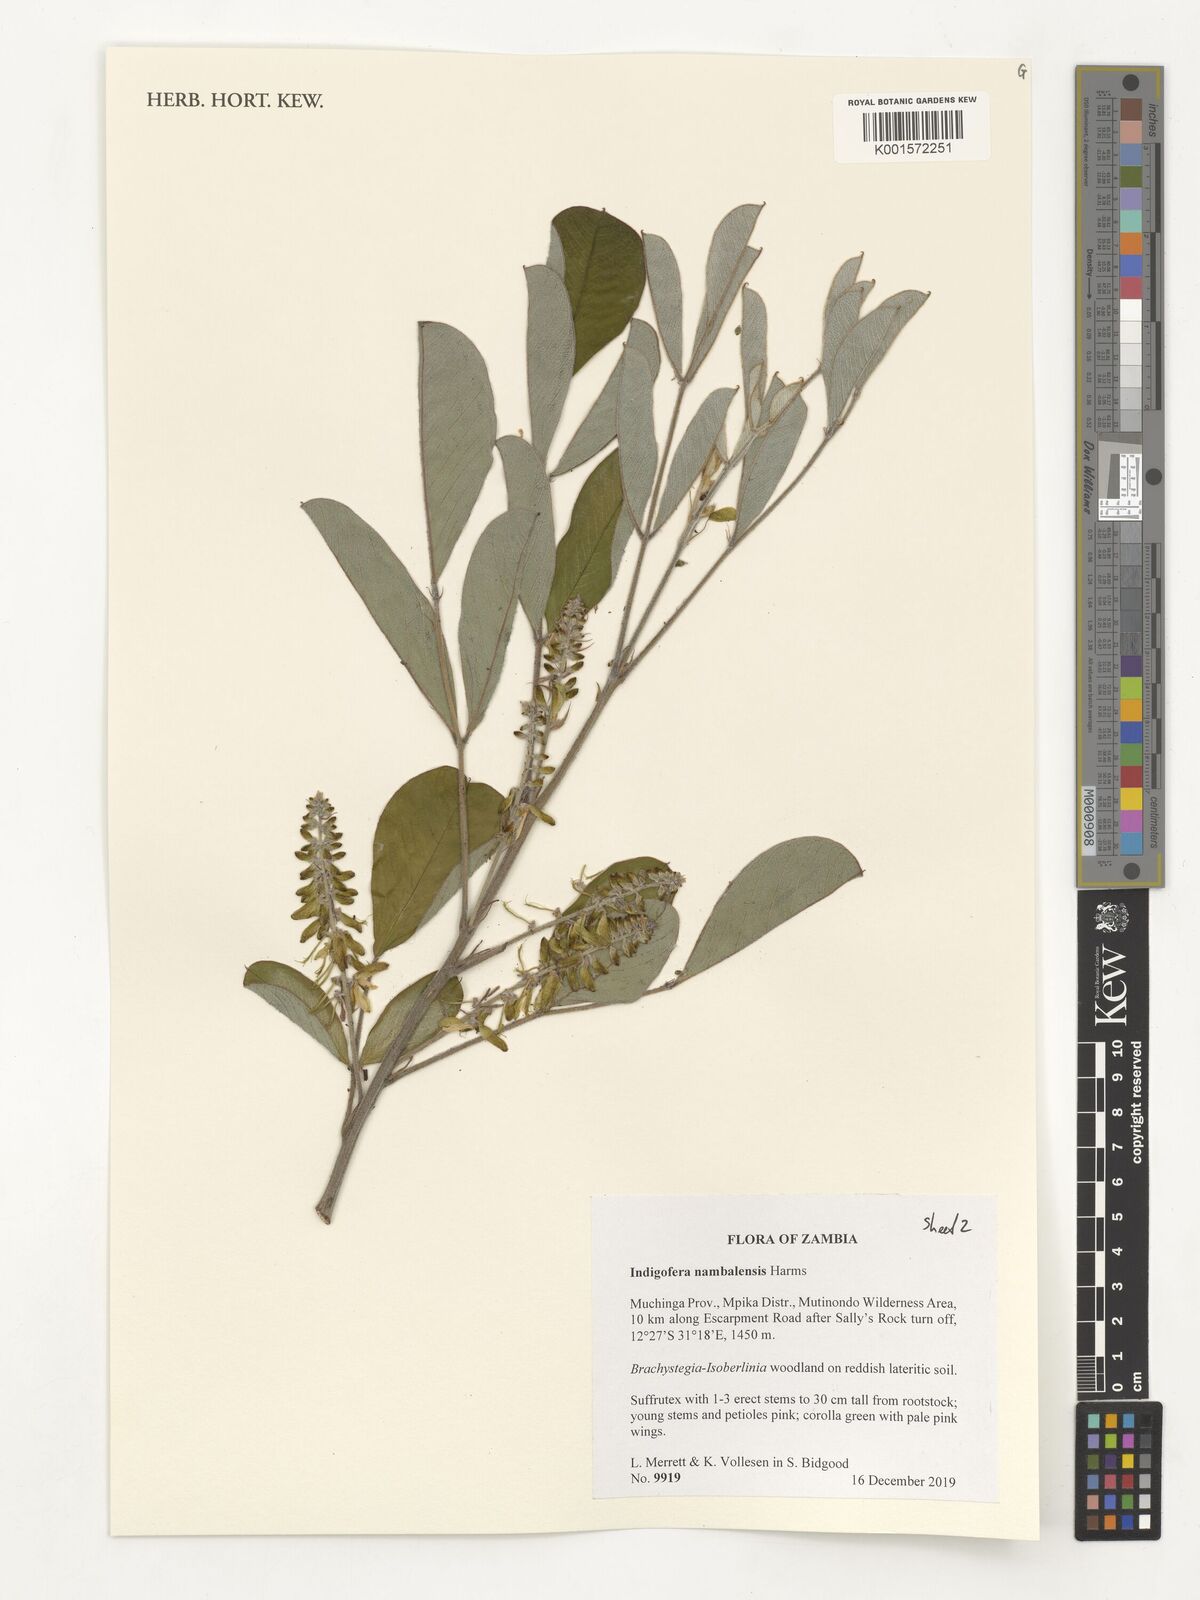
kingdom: Plantae
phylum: Tracheophyta
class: Magnoliopsida
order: Fabales
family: Fabaceae
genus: Indigofera
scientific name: Indigofera nambalensis
